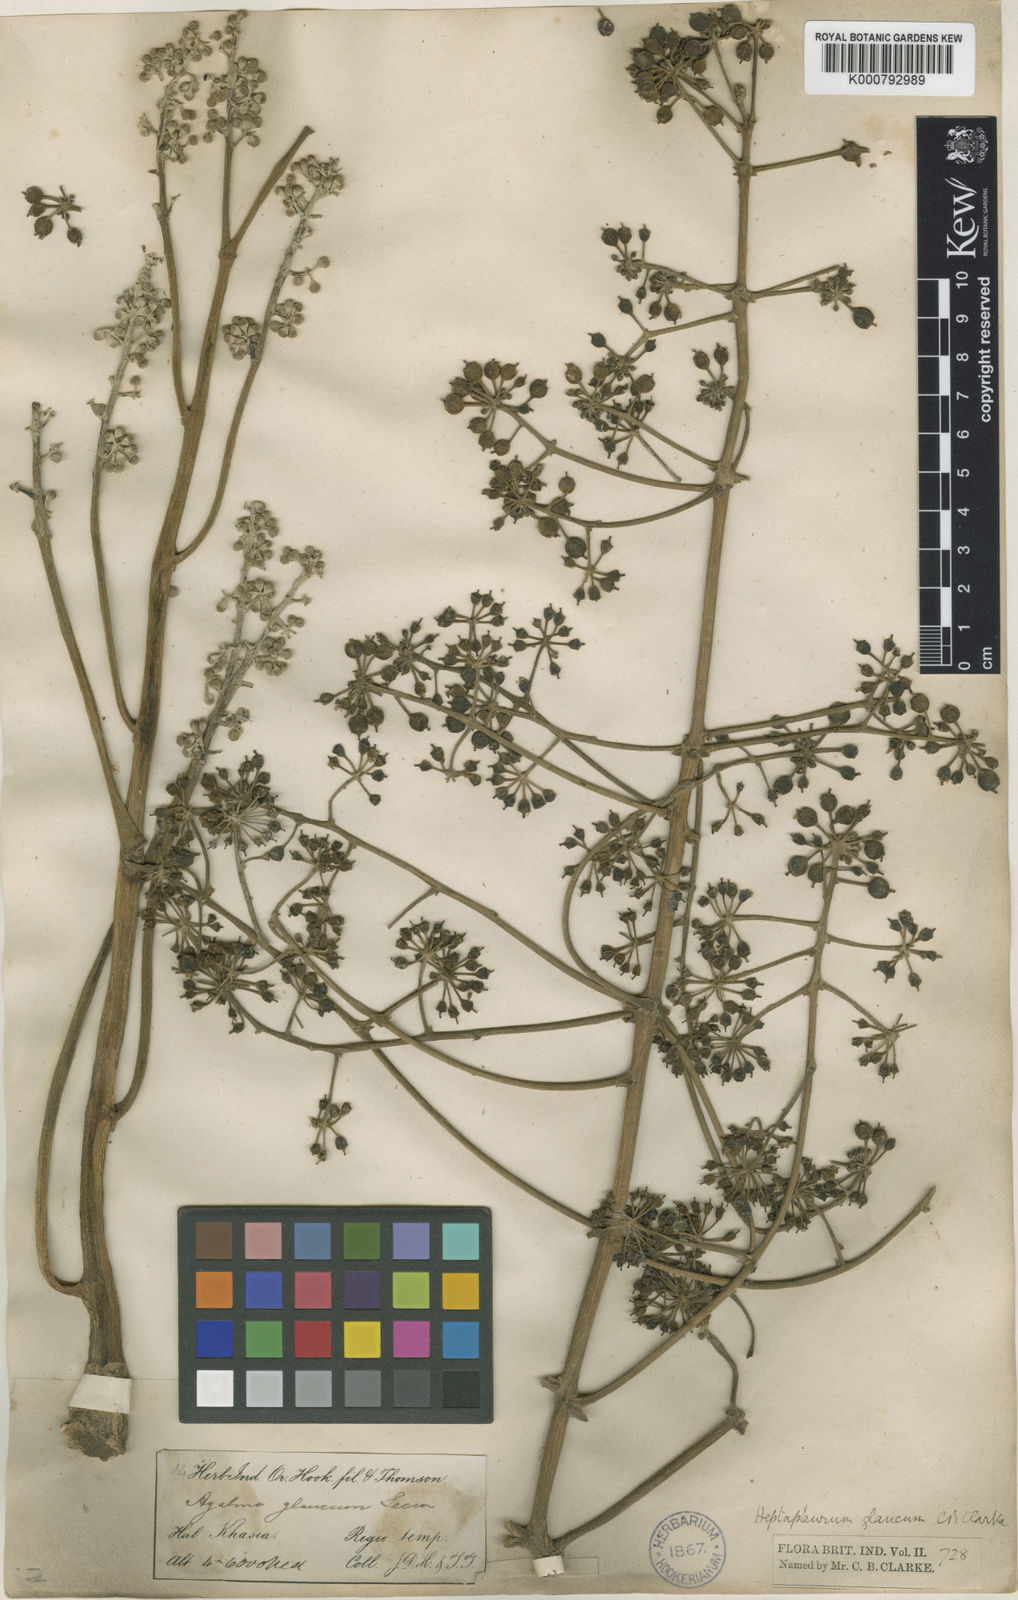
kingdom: Plantae
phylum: Tracheophyta
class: Magnoliopsida
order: Apiales
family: Araliaceae
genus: Heptapleurum
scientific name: Heptapleurum rhododendrifolium
